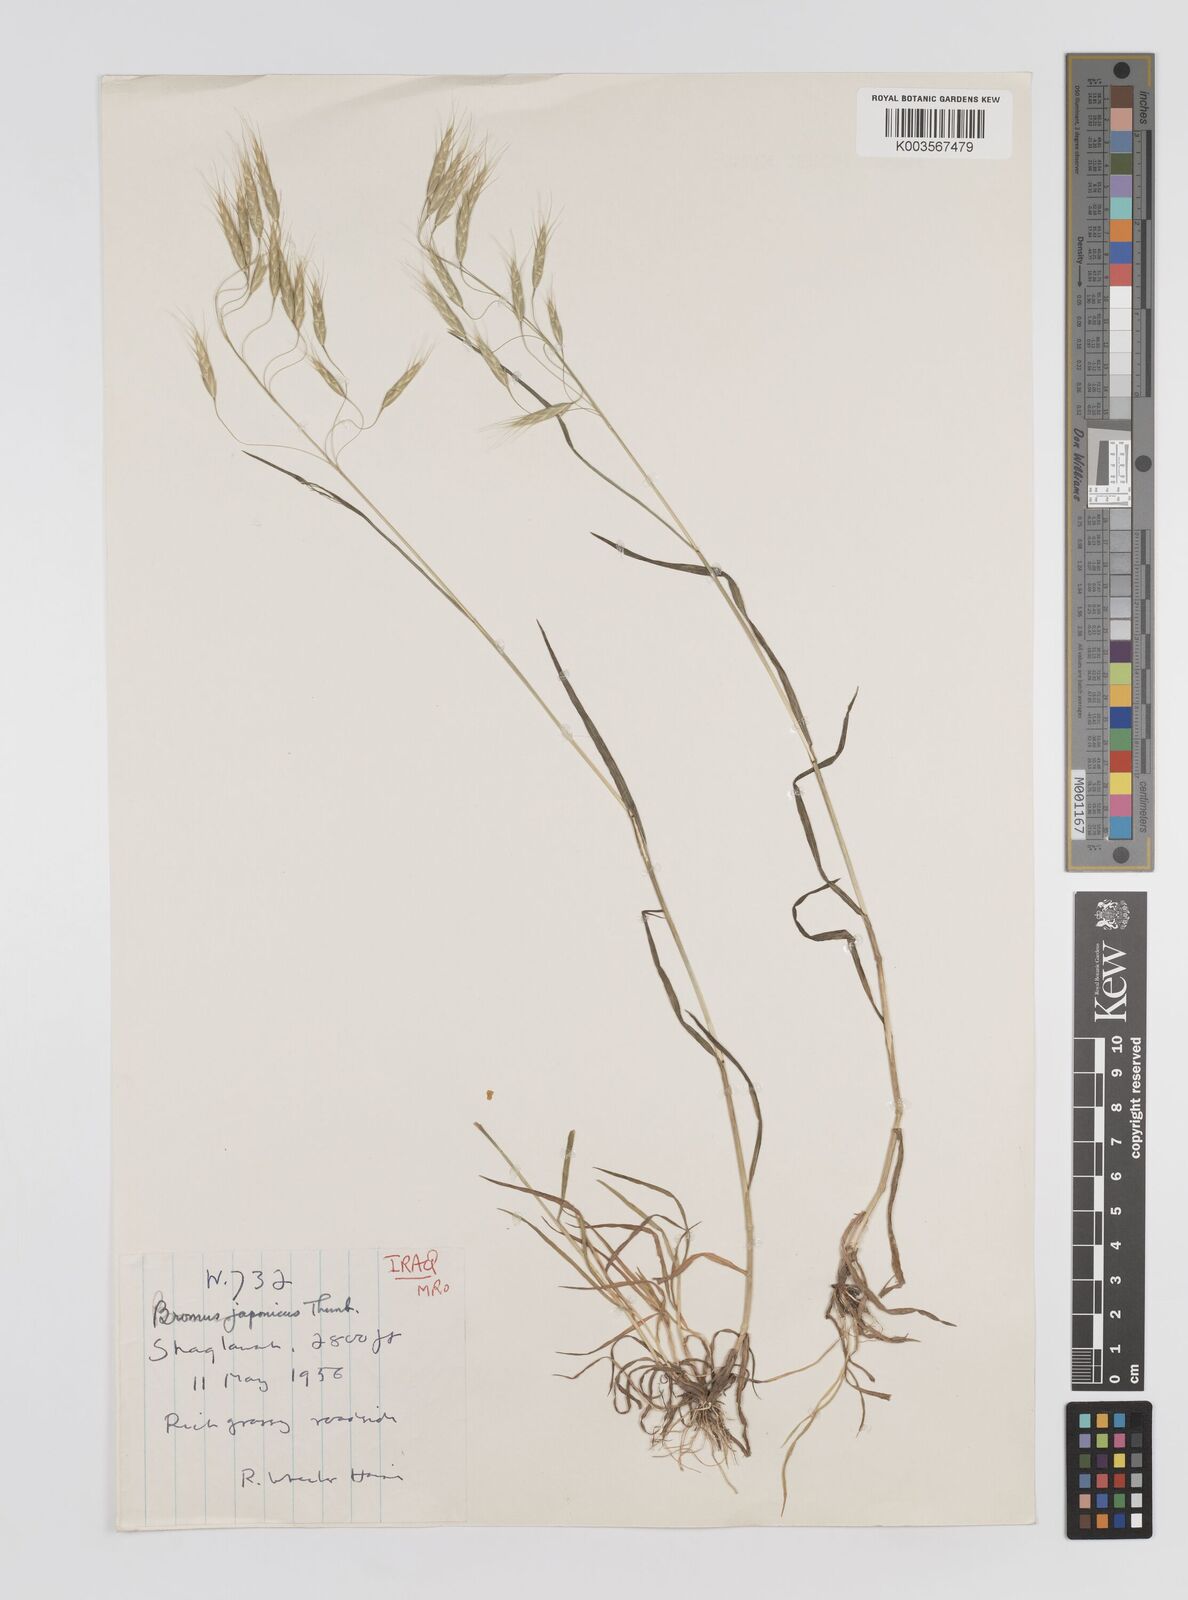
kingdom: Plantae
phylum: Tracheophyta
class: Liliopsida
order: Poales
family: Poaceae
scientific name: Poaceae
